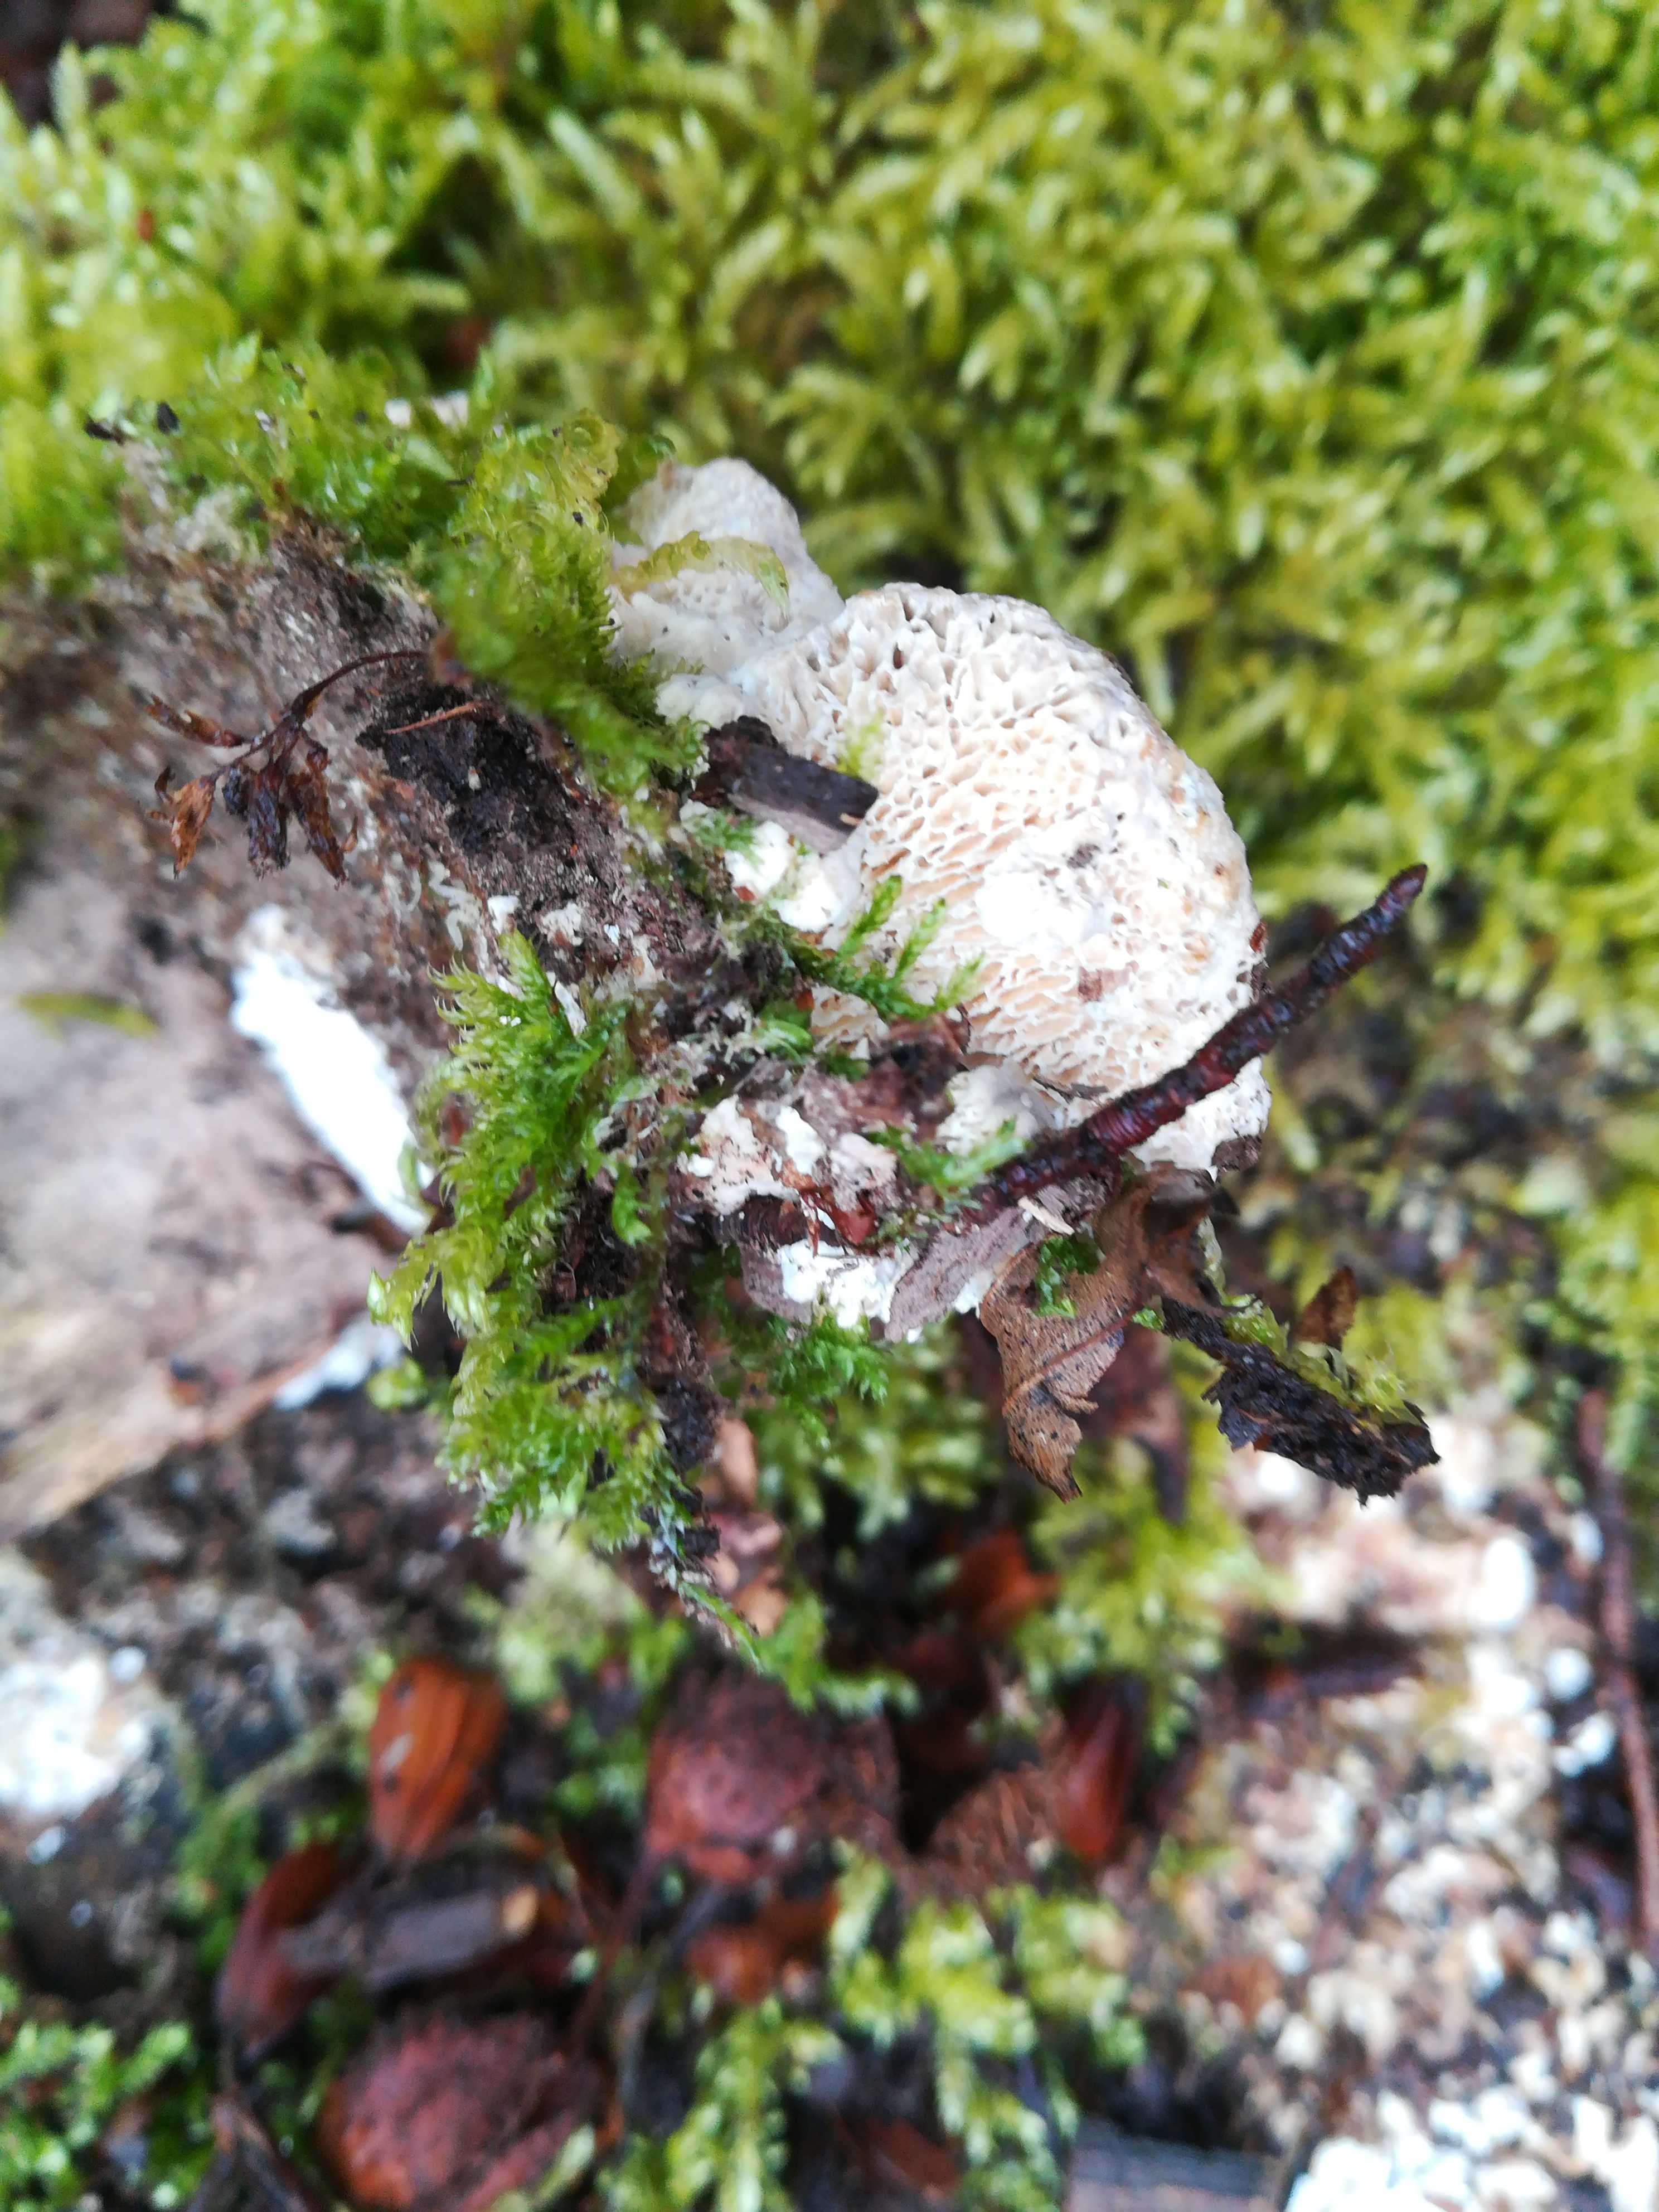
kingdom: Fungi
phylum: Basidiomycota
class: Agaricomycetes
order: Polyporales
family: Polyporaceae
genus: Trametes
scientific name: Trametes gibbosa
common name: puklet læderporesvamp
